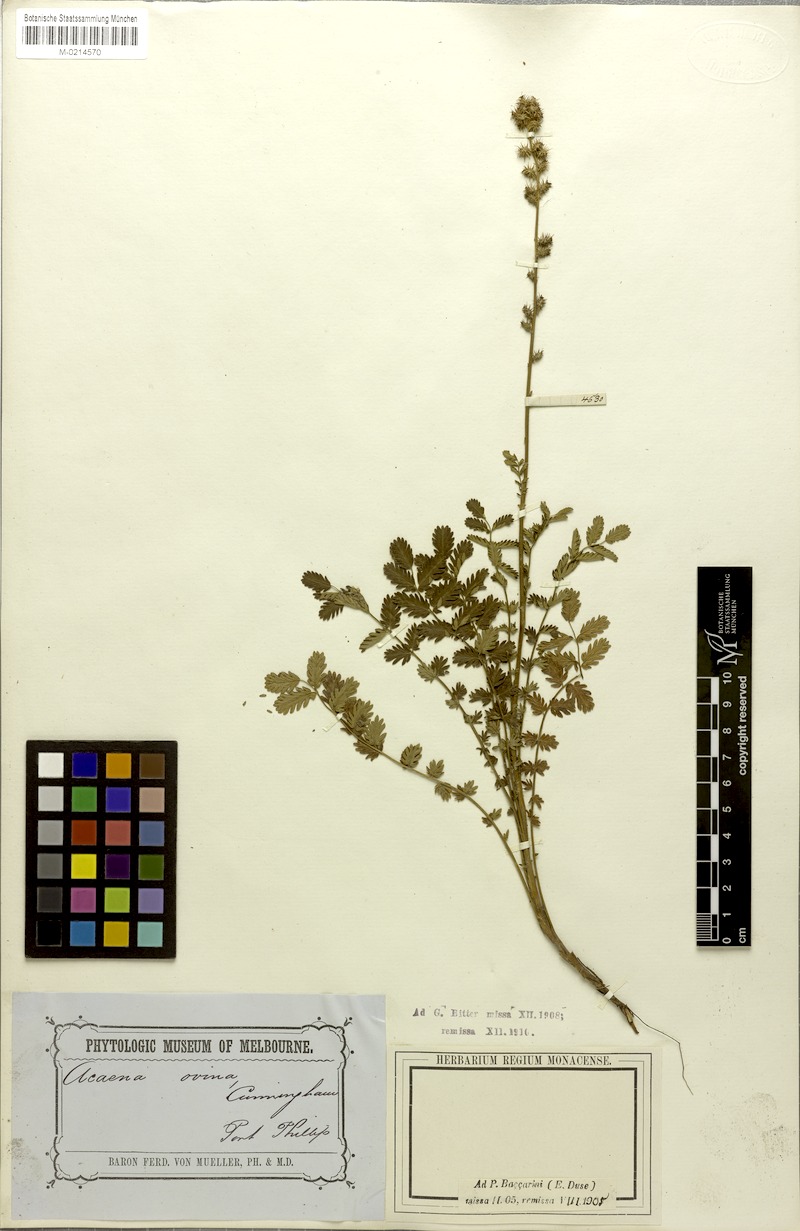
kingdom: Plantae
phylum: Tracheophyta
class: Magnoliopsida
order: Rosales
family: Rosaceae
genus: Acaena
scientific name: Acaena ovina
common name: Hairy sheepbur
